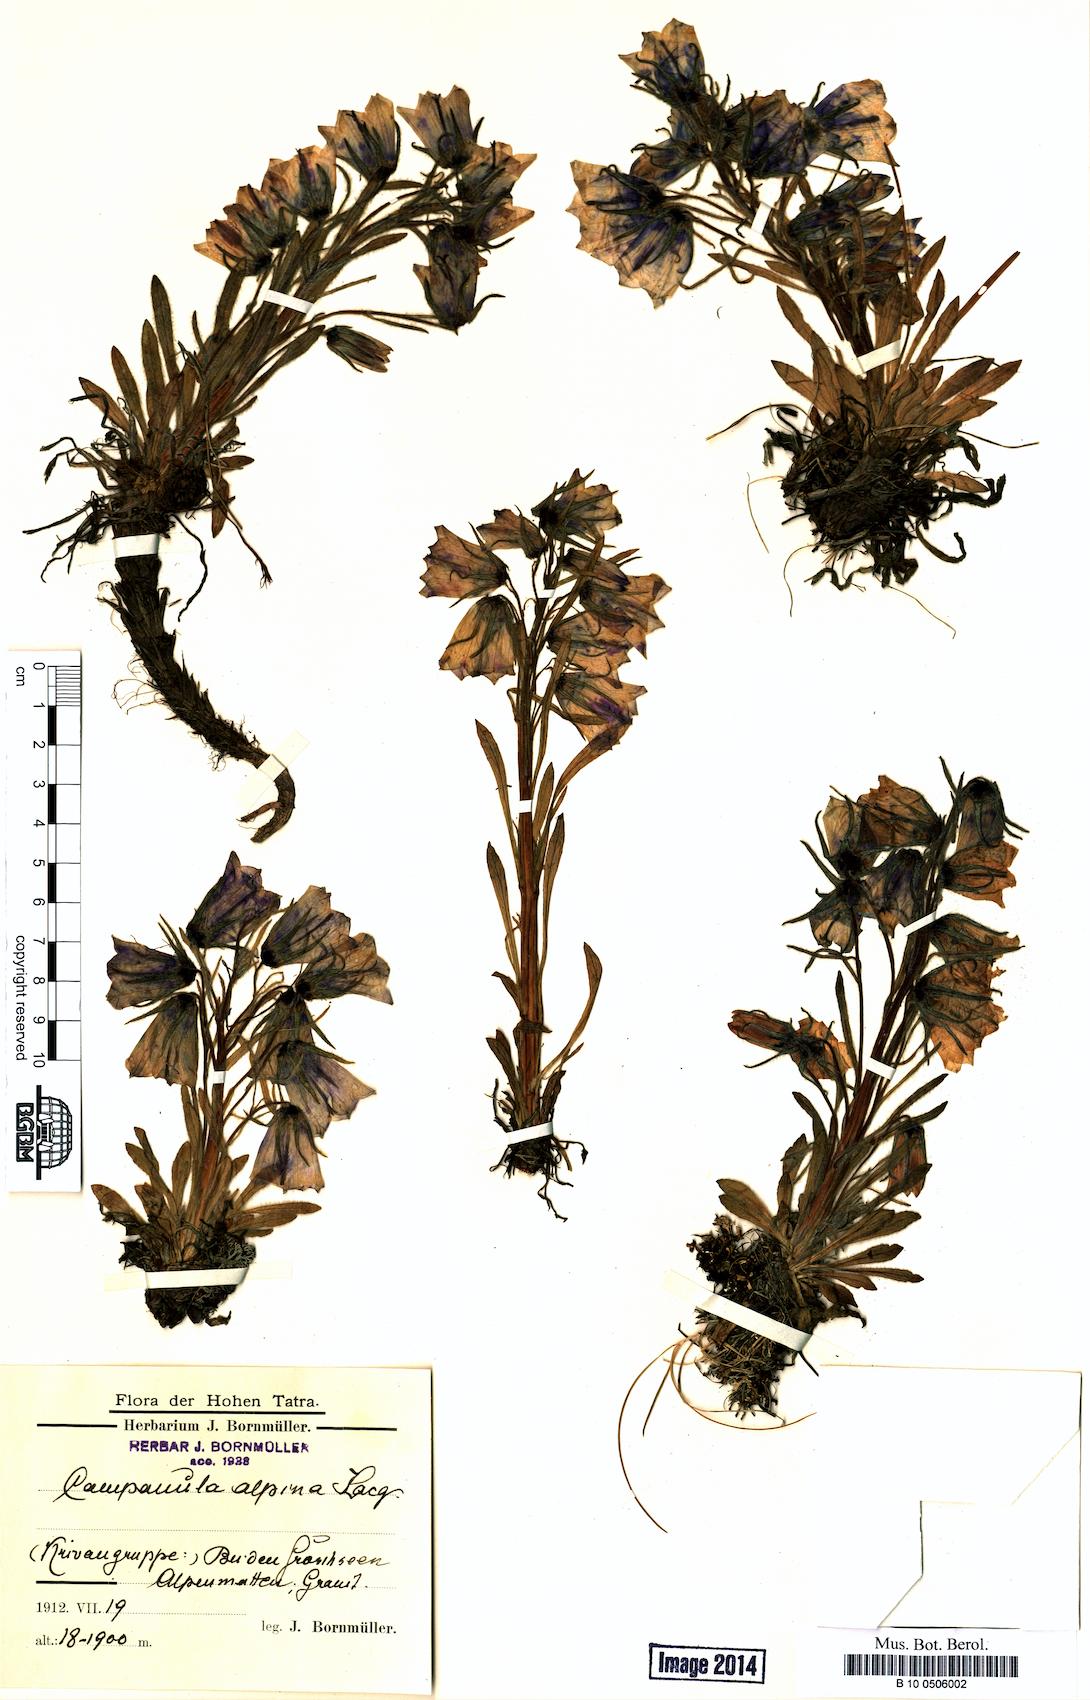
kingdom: Plantae
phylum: Tracheophyta
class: Magnoliopsida
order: Asterales
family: Campanulaceae
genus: Campanula
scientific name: Campanula alpina
